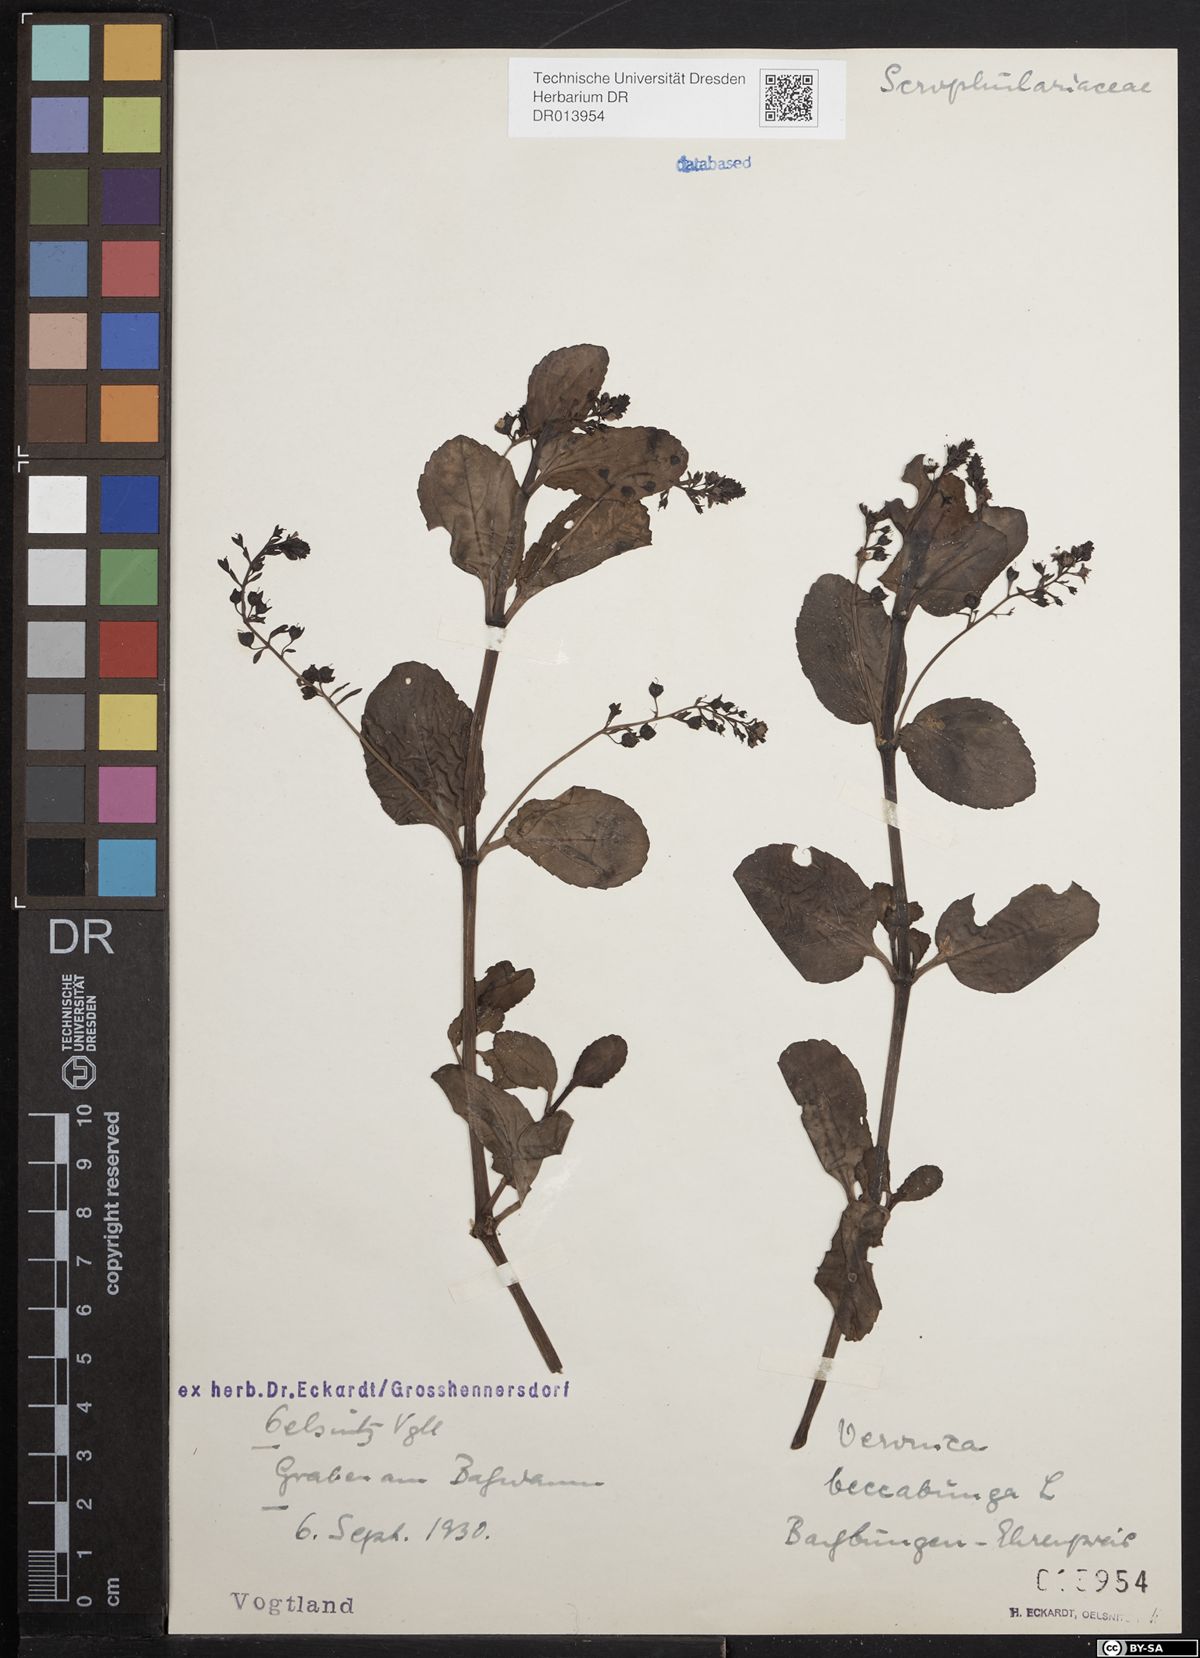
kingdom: Plantae
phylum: Tracheophyta
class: Magnoliopsida
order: Lamiales
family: Plantaginaceae
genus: Veronica
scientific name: Veronica beccabunga
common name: Brooklime
